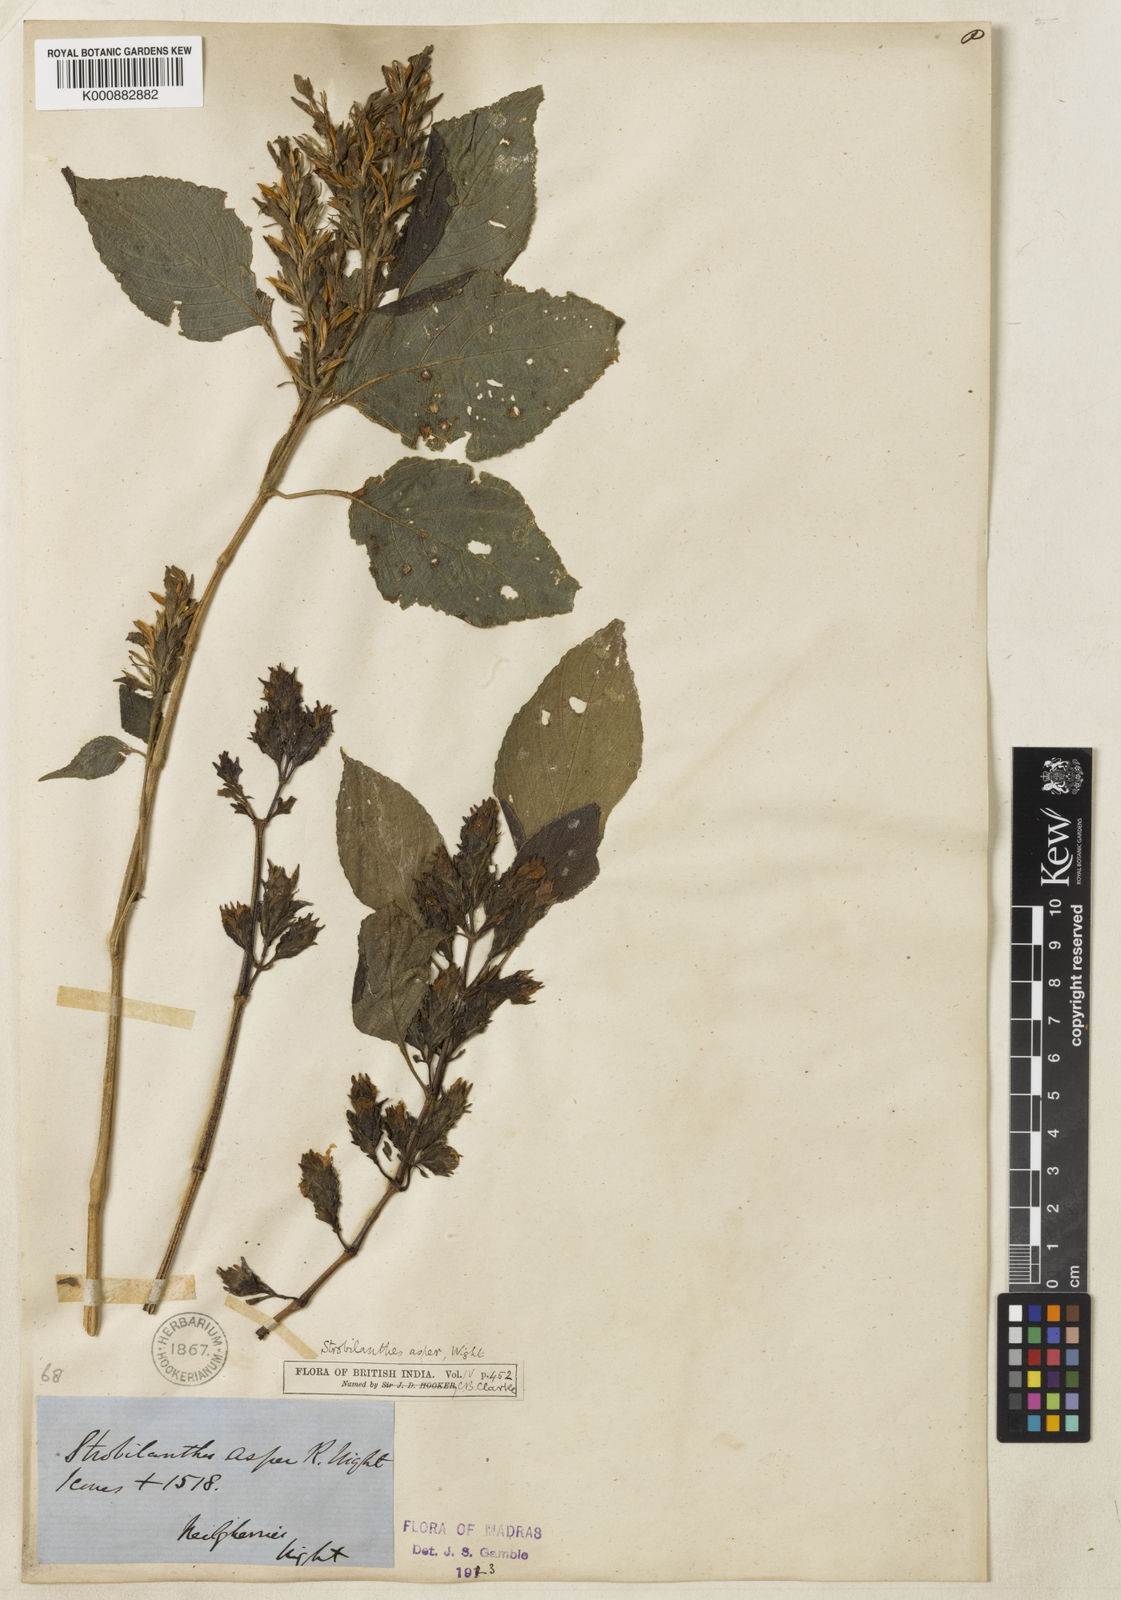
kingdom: Plantae
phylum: Tracheophyta
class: Magnoliopsida
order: Lamiales
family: Acanthaceae
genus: Strobilanthes
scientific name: Strobilanthes ciliata
